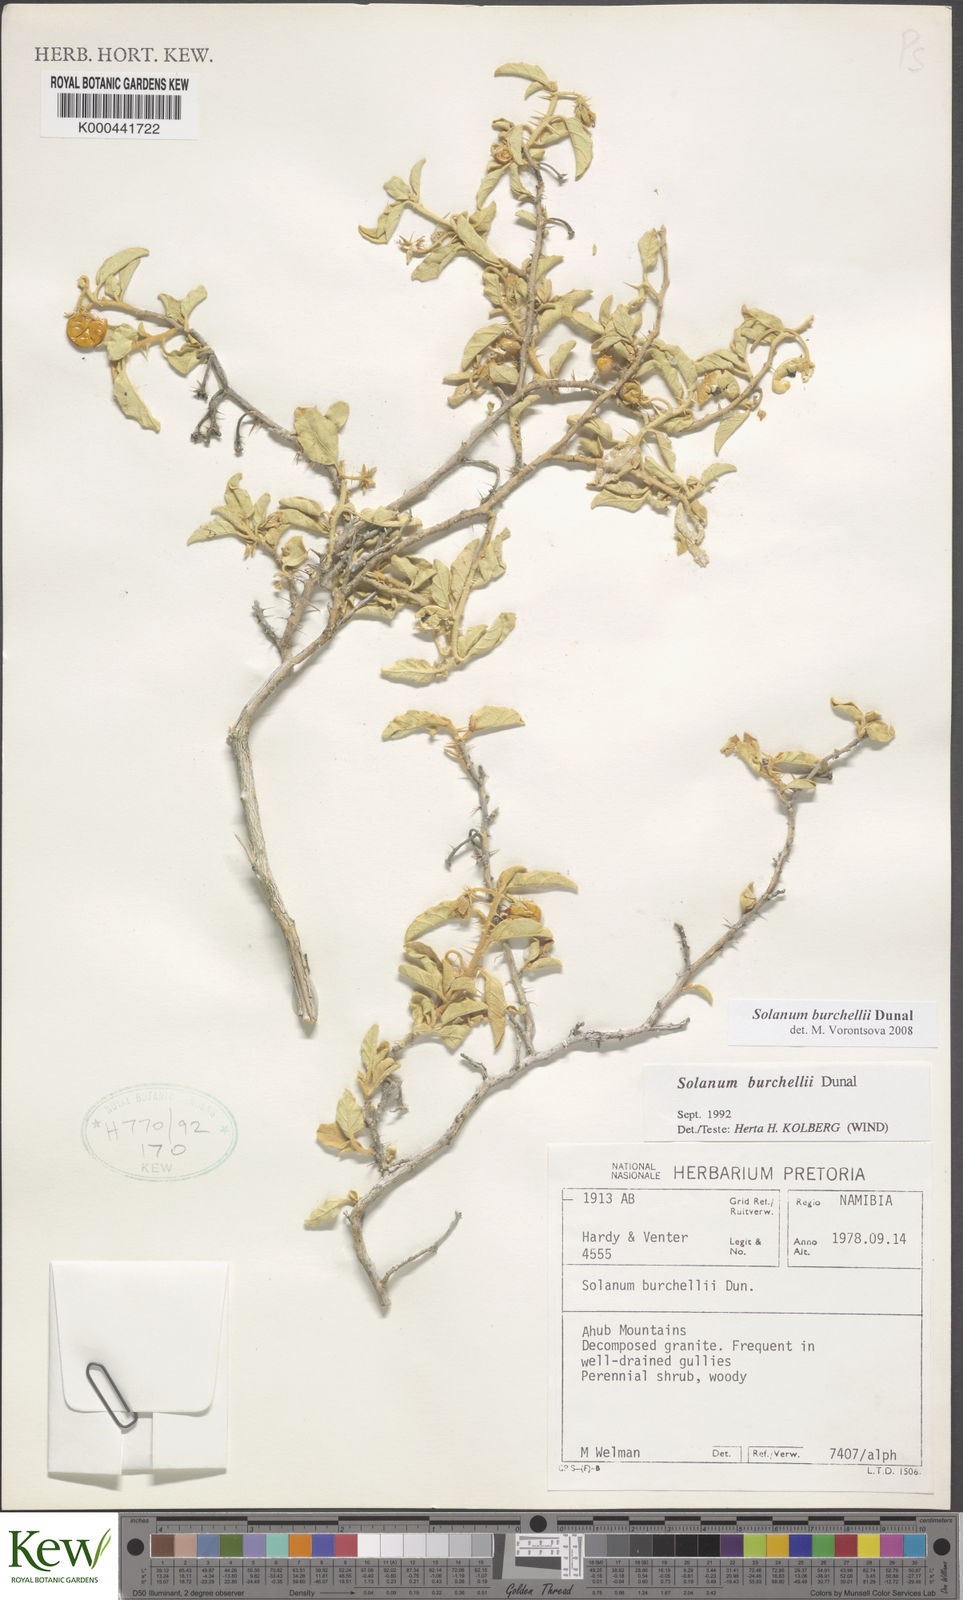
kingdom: Plantae
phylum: Tracheophyta
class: Magnoliopsida
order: Solanales
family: Solanaceae
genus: Solanum
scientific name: Solanum burchellii
